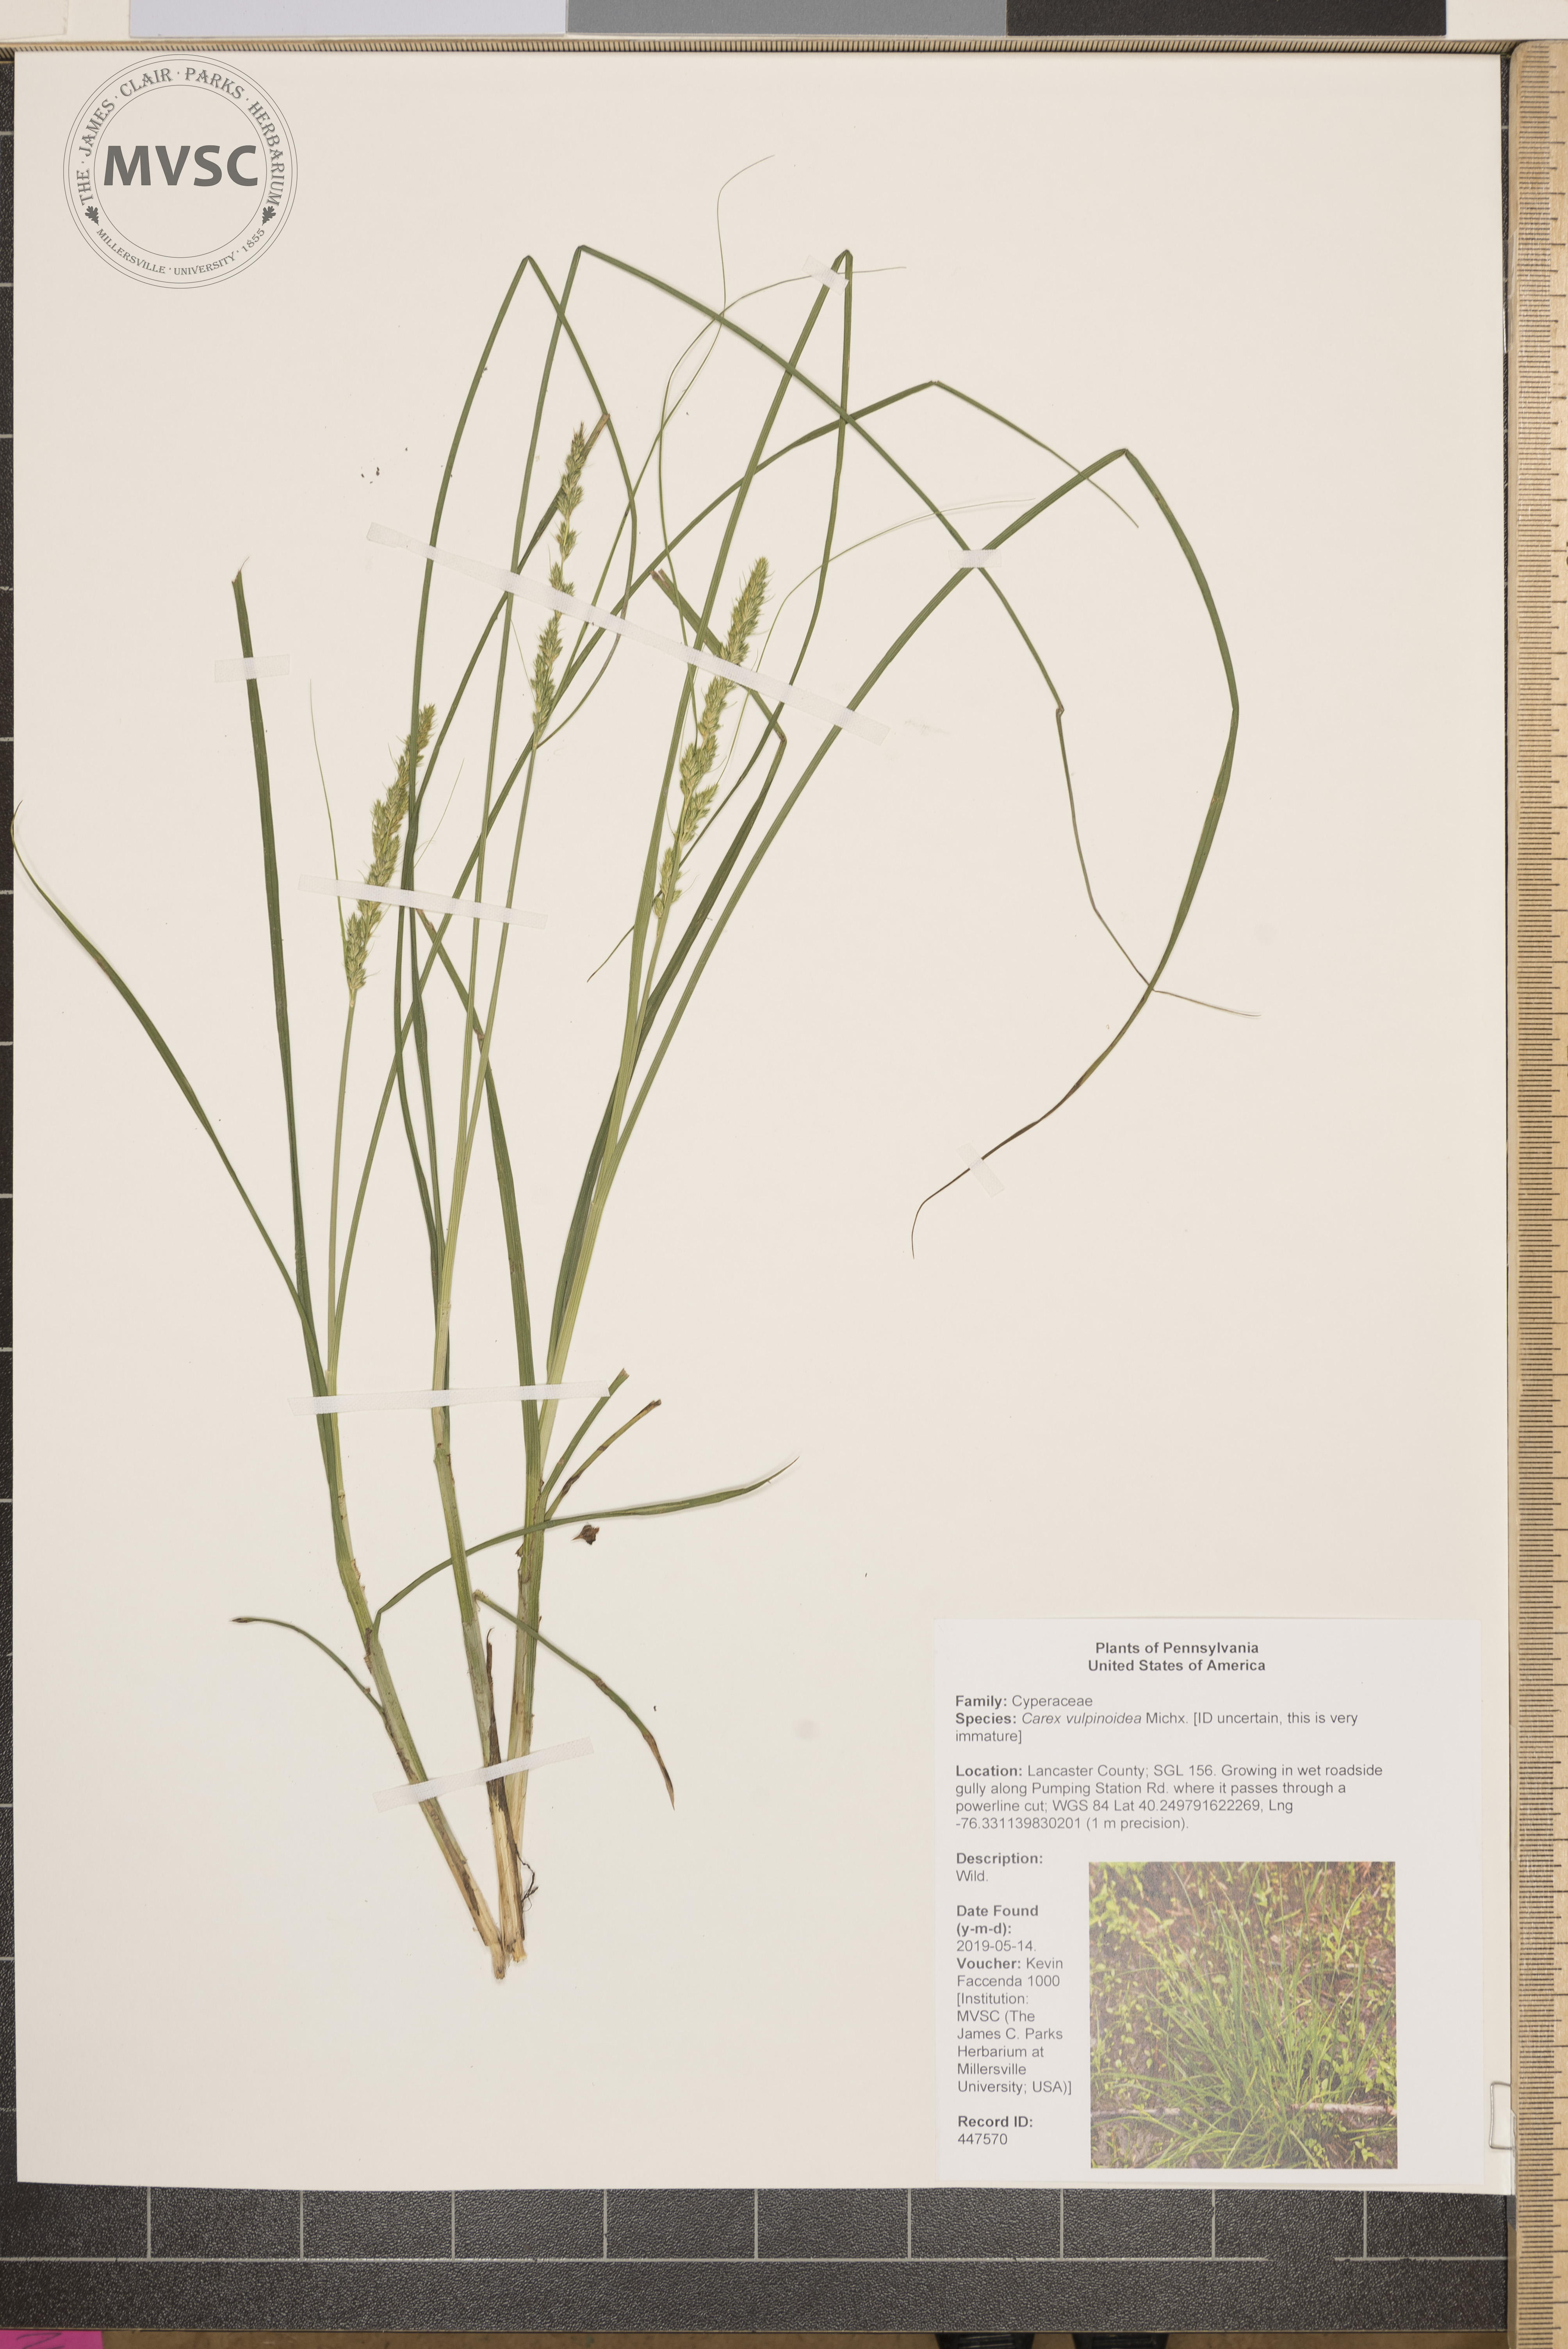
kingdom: Plantae
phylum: Tracheophyta
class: Liliopsida
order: Poales
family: Cyperaceae
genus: Carex
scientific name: Carex vulpinoidea
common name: American fox-sedge
